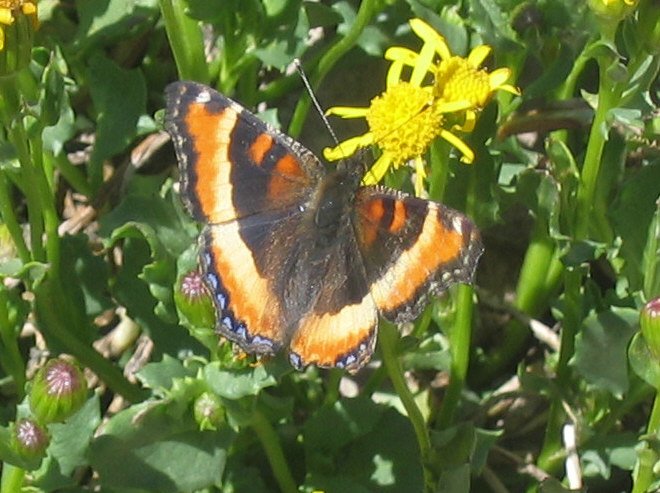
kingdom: Animalia
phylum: Arthropoda
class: Insecta
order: Lepidoptera
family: Nymphalidae
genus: Aglais
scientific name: Aglais milberti
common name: Milbert's Tortoiseshell
